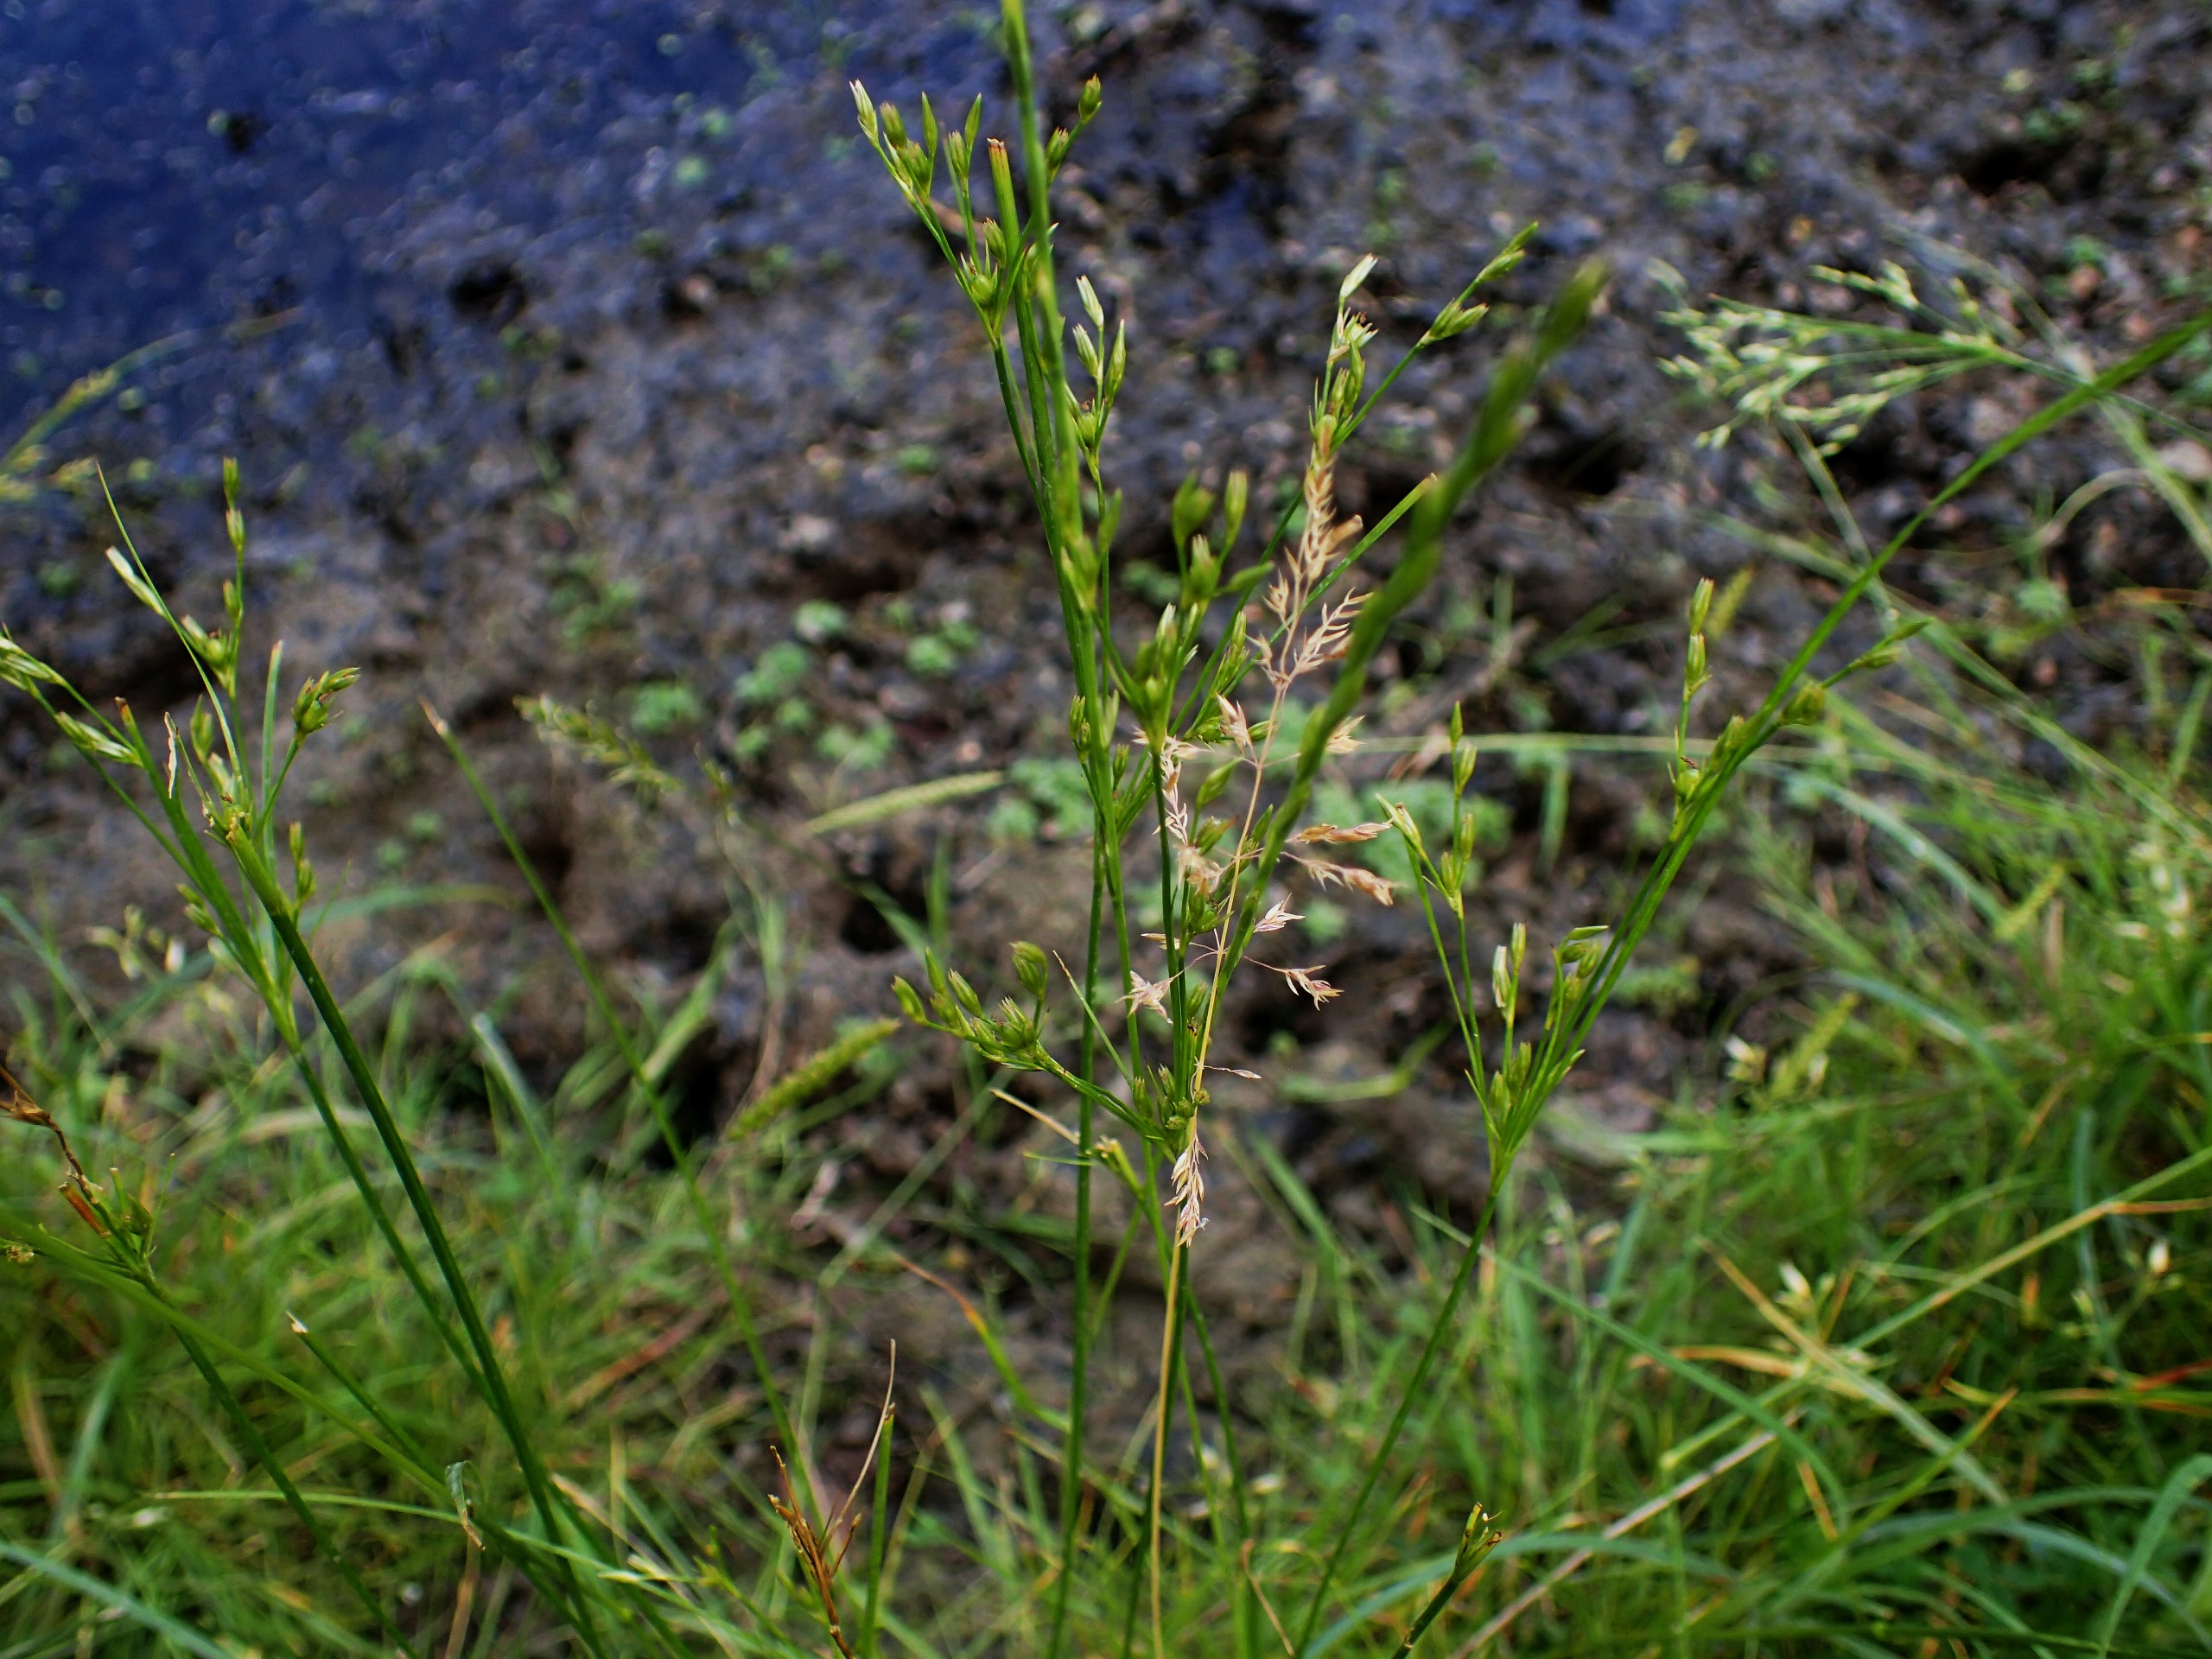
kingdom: Plantae
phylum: Tracheophyta
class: Liliopsida
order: Poales
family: Juncaceae
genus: Juncus
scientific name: Juncus tenuis
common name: Tue-siv
